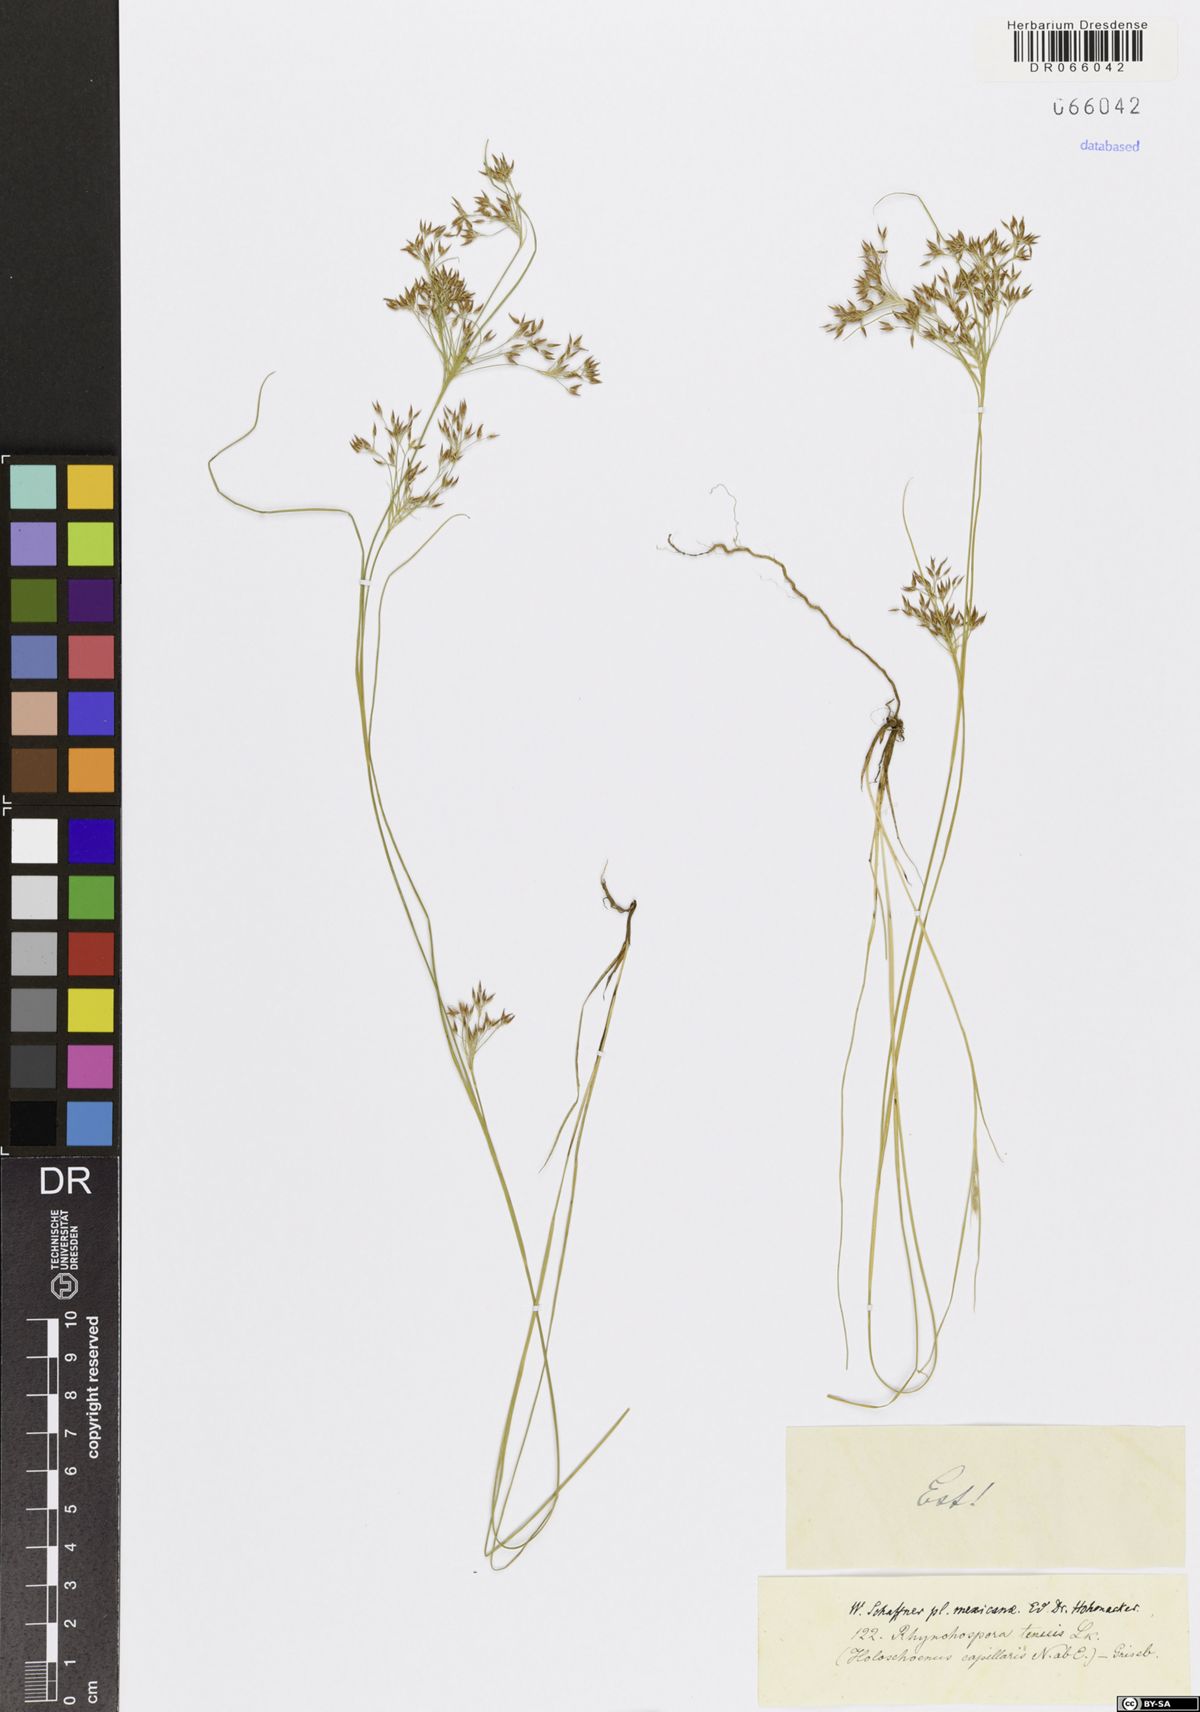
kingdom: Plantae
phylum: Tracheophyta
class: Liliopsida
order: Poales
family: Cyperaceae
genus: Rhynchospora
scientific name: Rhynchospora tenuis
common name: Quill beaksedge
